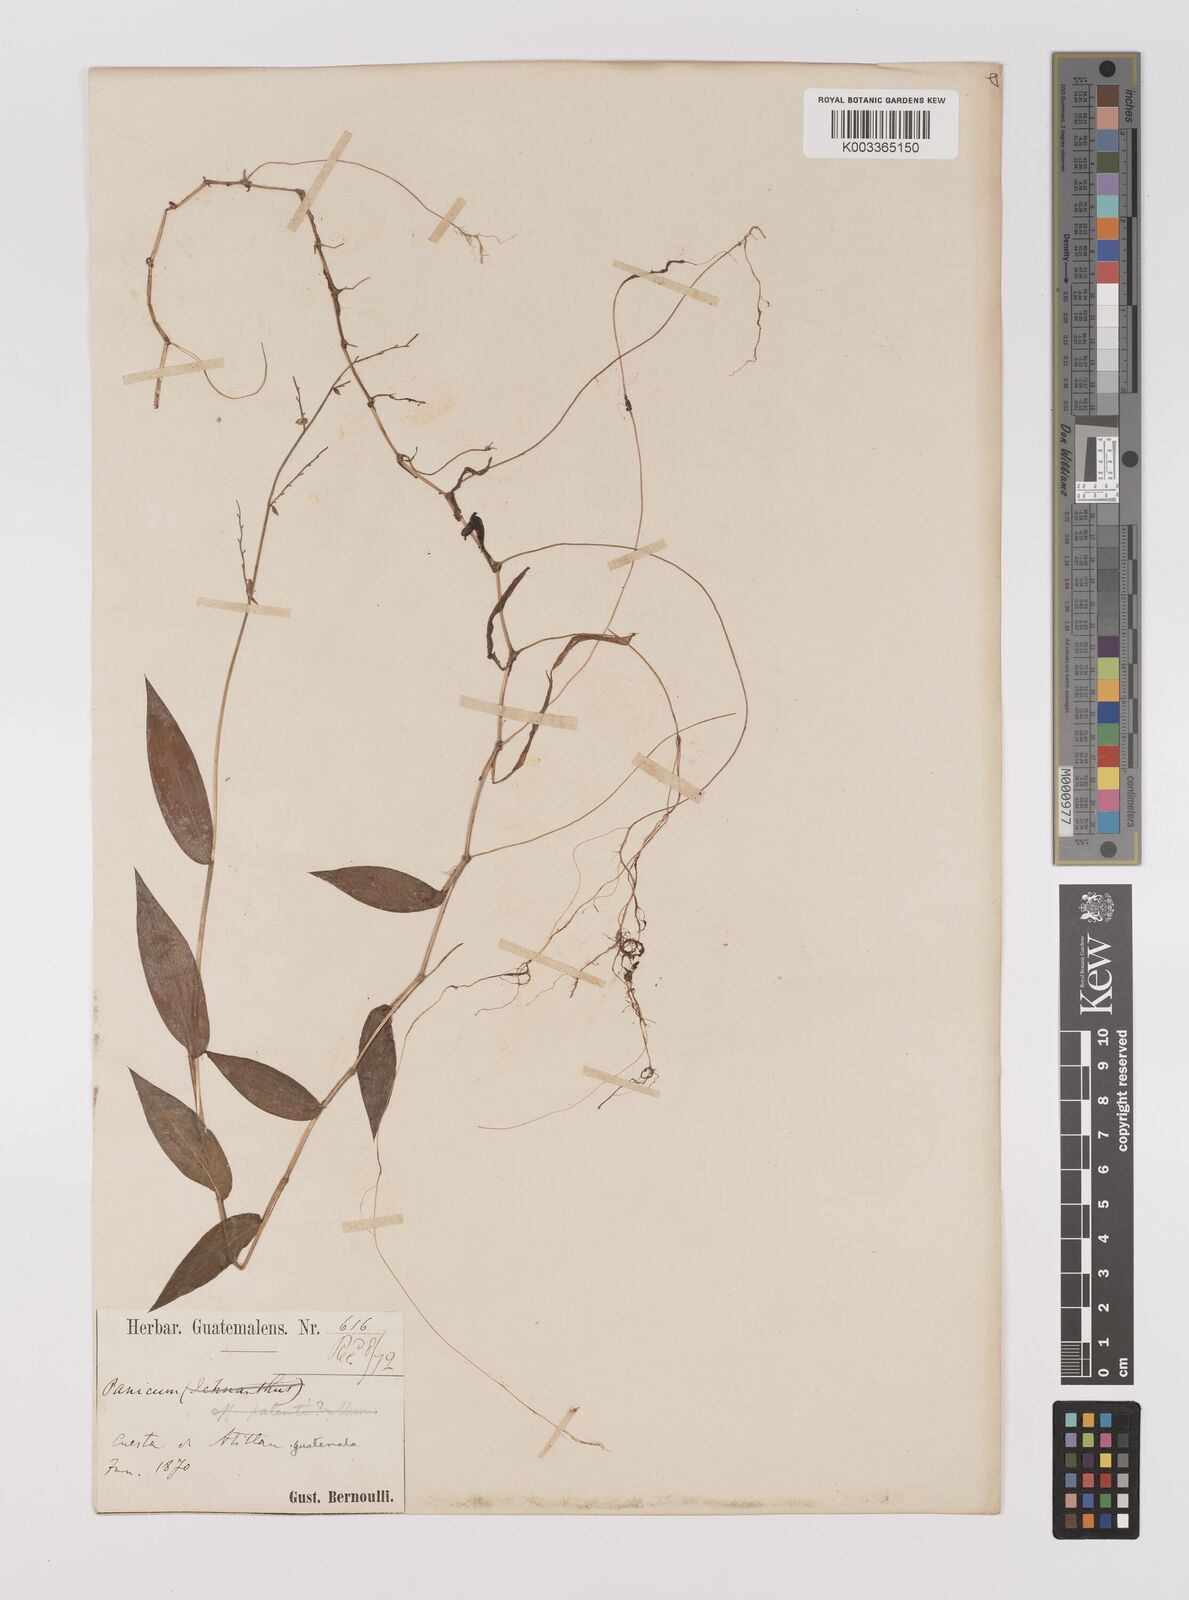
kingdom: Plantae
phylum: Tracheophyta
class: Liliopsida
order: Poales
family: Poaceae
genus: Oplismenus
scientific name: Oplismenus hirtellus
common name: Basketgrass
